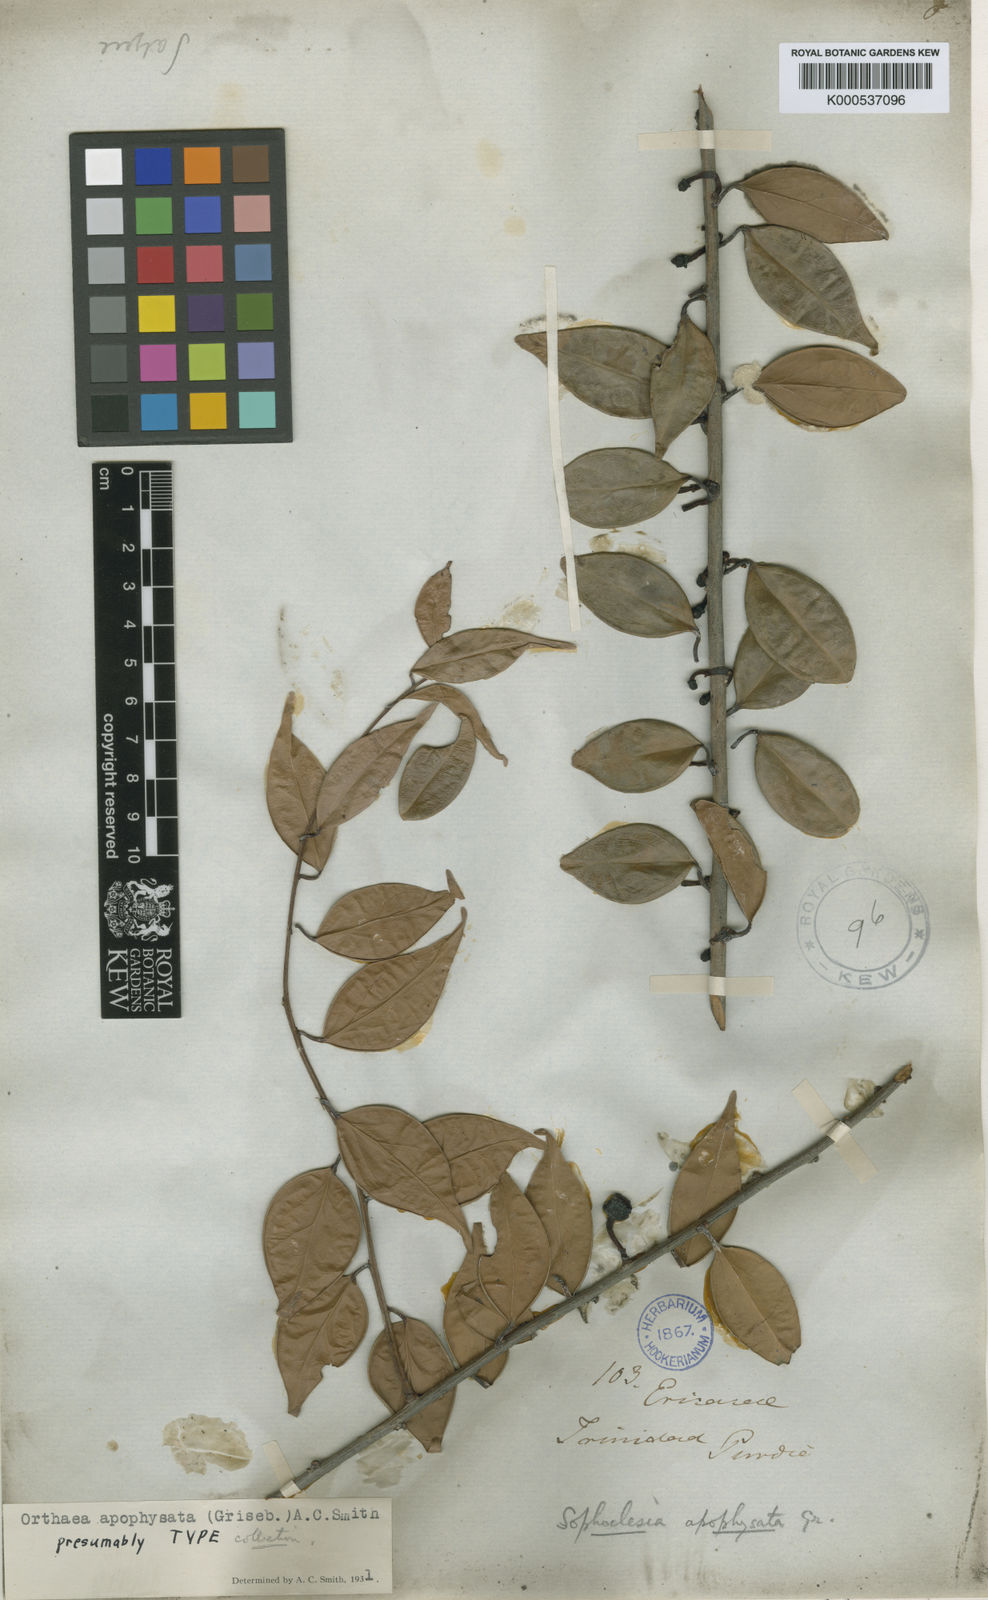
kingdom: Plantae
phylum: Tracheophyta
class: Magnoliopsida
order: Ericales
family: Ericaceae
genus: Orthaea
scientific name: Orthaea apophysata
